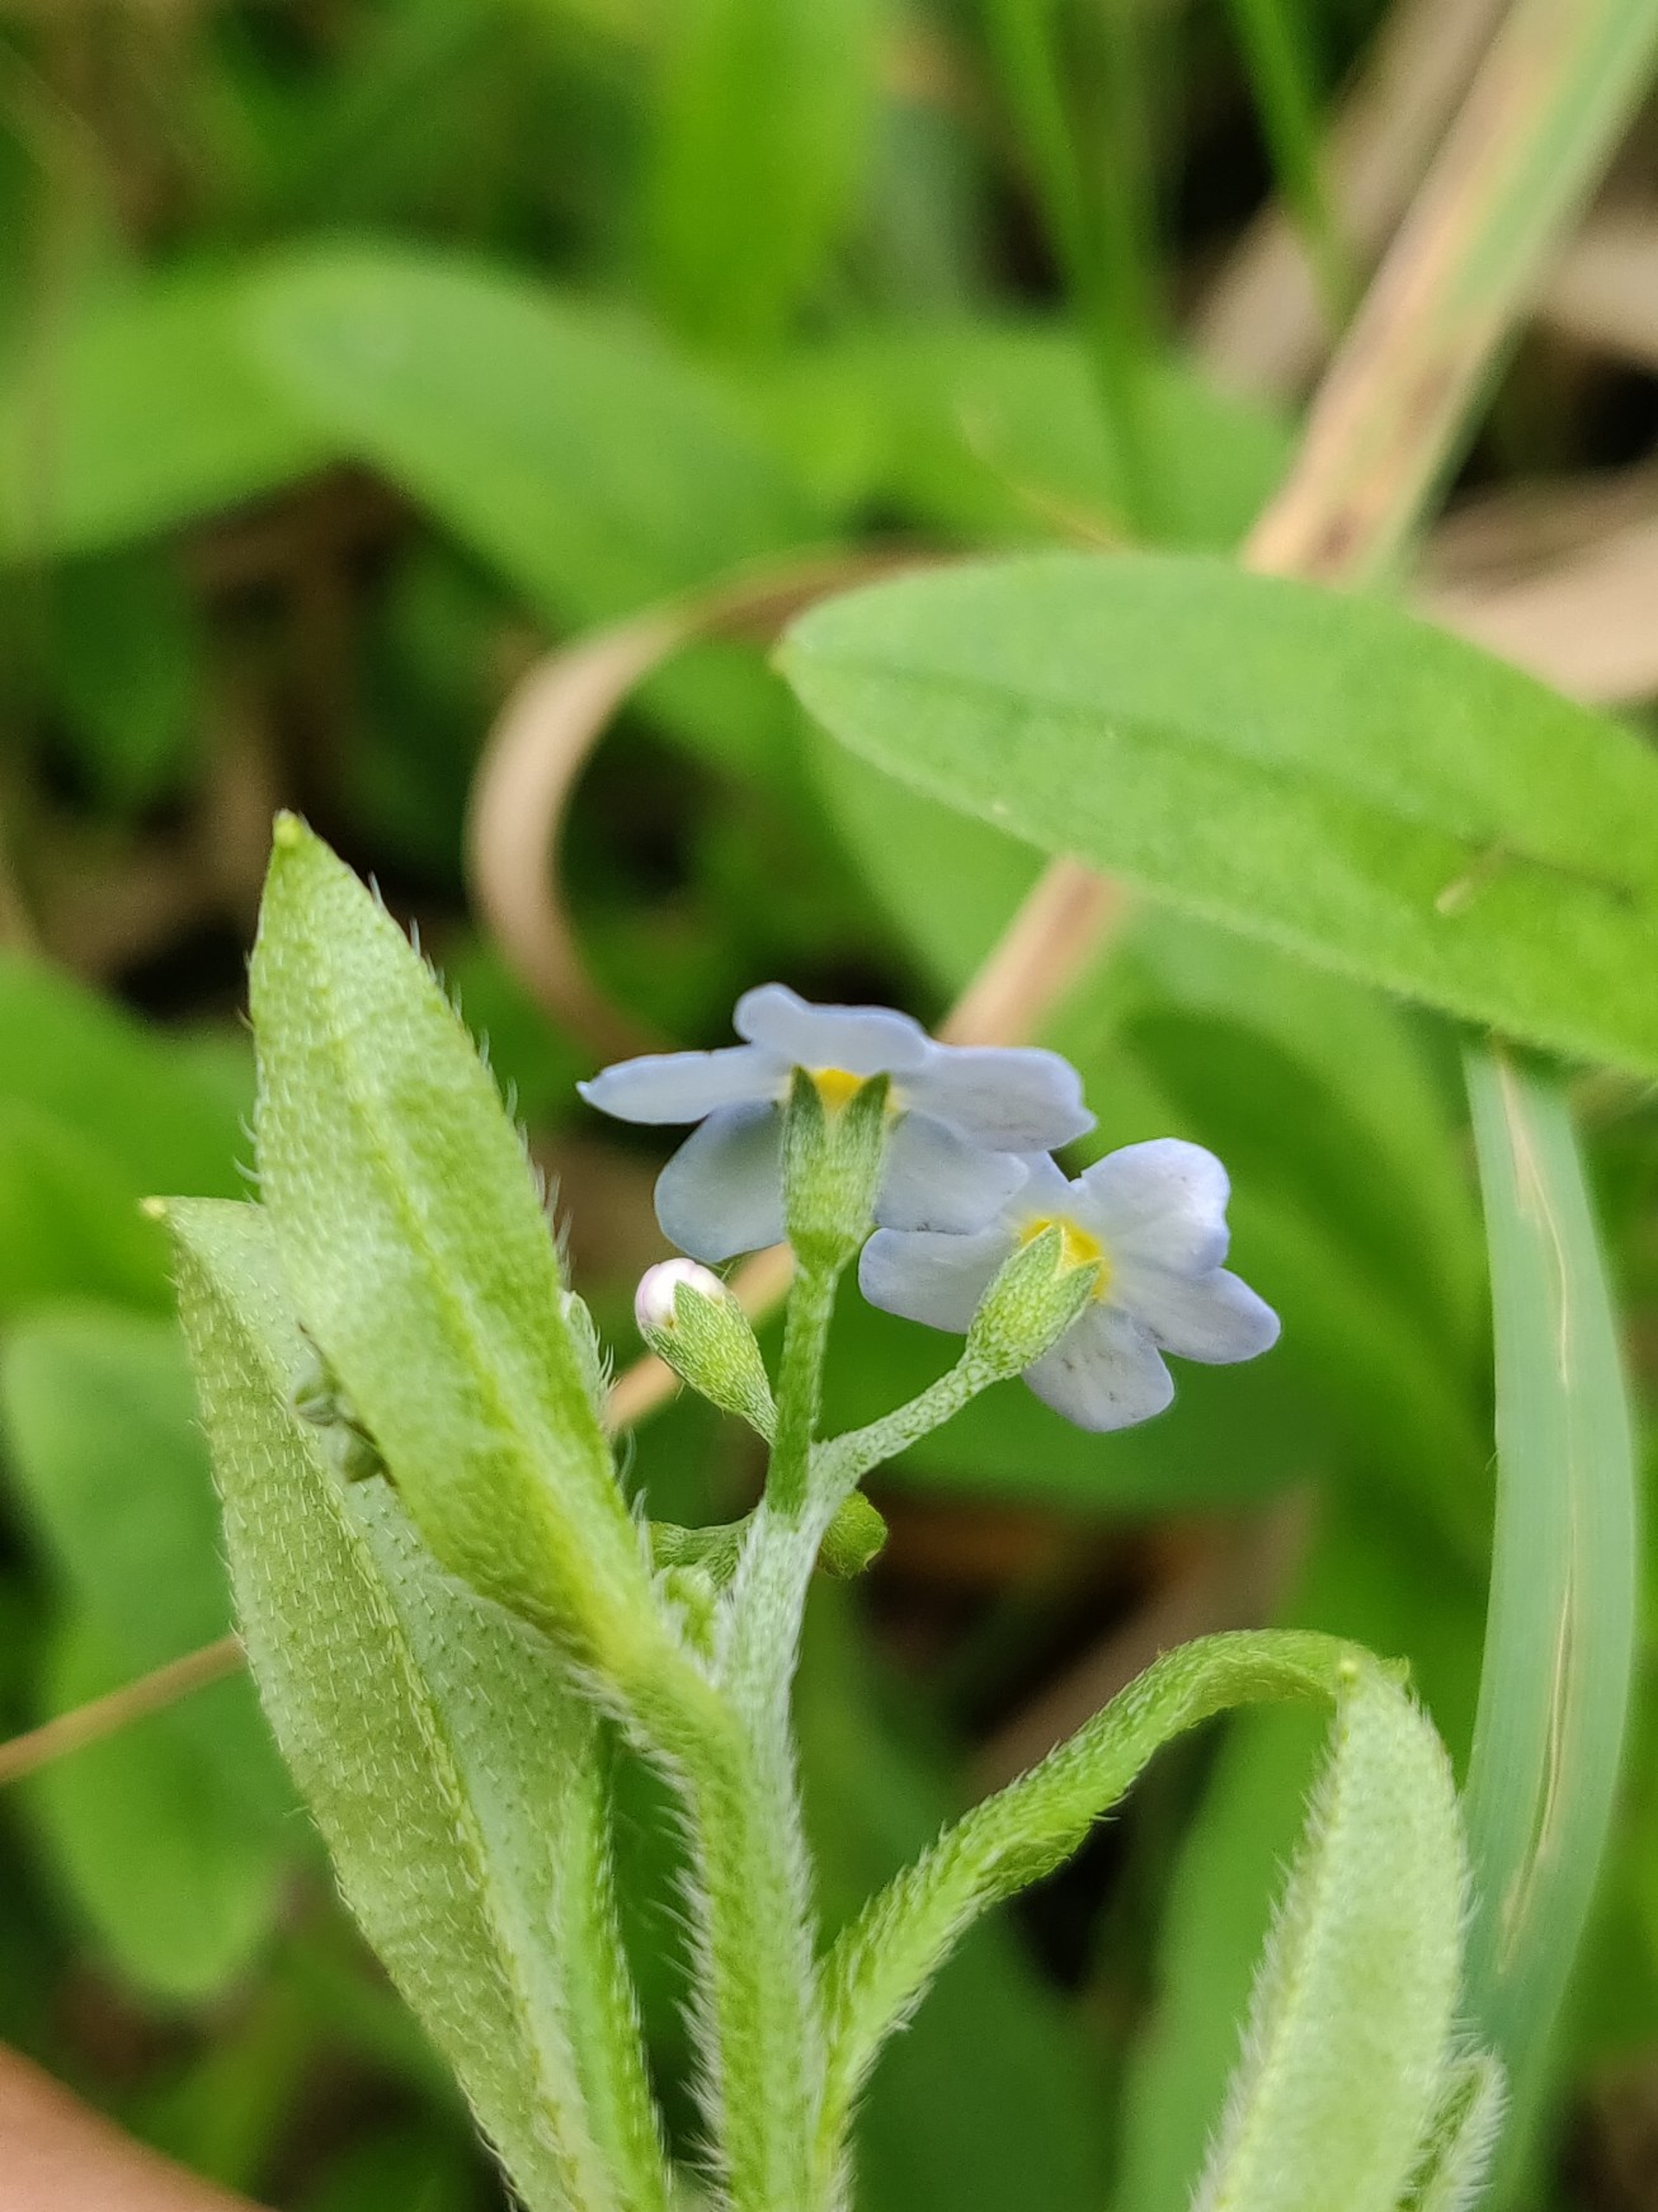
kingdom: Plantae
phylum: Tracheophyta
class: Magnoliopsida
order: Boraginales
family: Boraginaceae
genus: Myosotis
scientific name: Myosotis scorpioides
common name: Eng-forglemmigej
